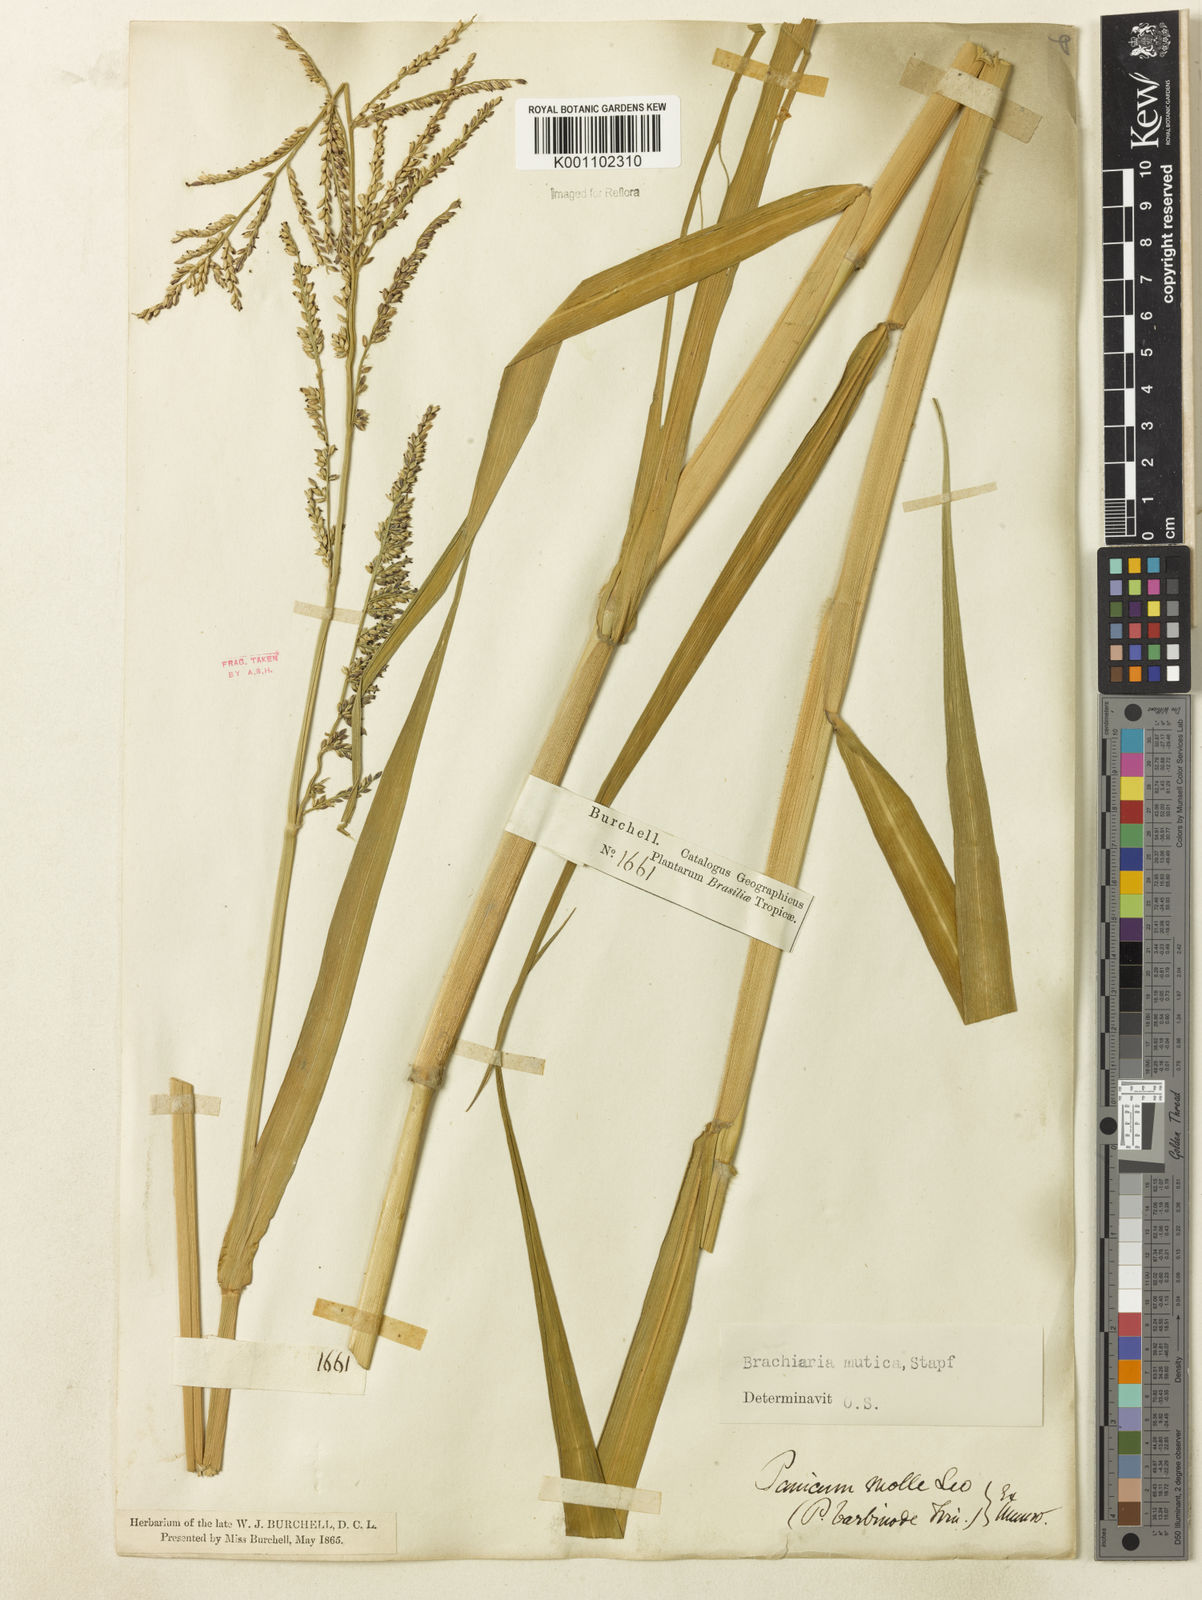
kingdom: Plantae
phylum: Tracheophyta
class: Liliopsida
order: Poales
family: Poaceae
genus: Urochloa
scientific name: Urochloa mutica
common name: Para grass
